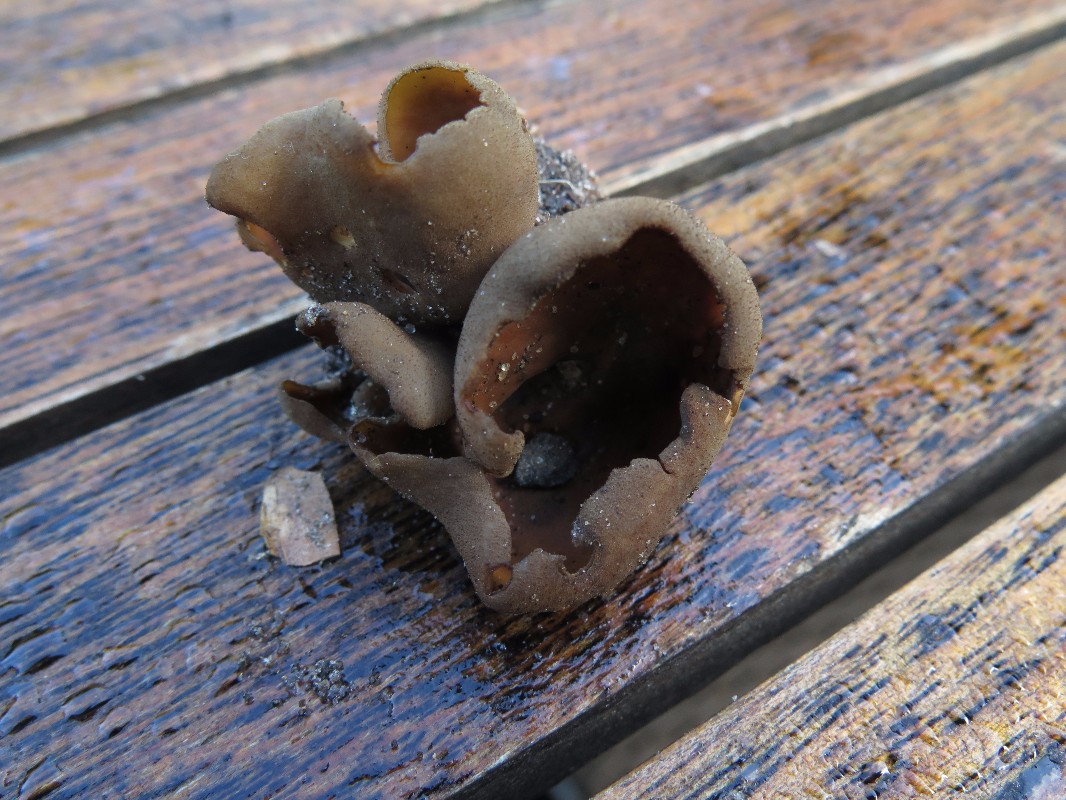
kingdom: Fungi
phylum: Ascomycota
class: Pezizomycetes
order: Pezizales
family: Otideaceae
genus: Otidea
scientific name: Otidea bufonia
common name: brun ørebæger
